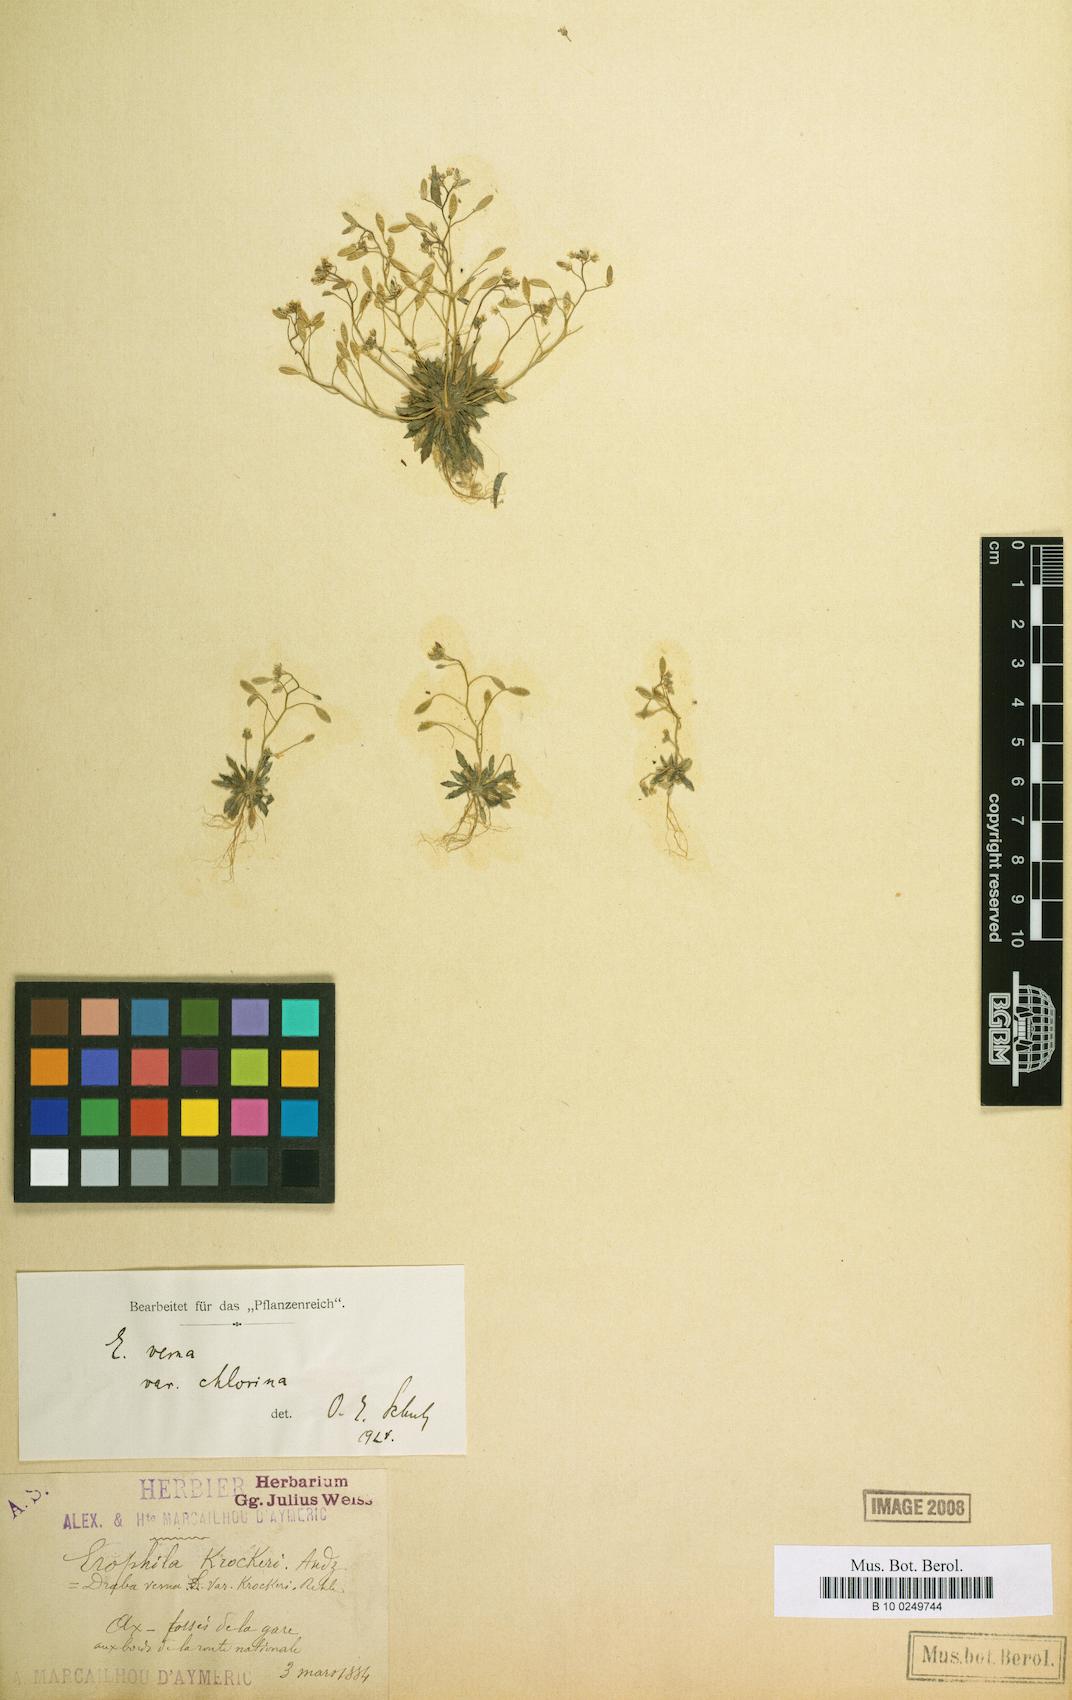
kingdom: Plantae
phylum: Tracheophyta
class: Magnoliopsida
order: Brassicales
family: Brassicaceae
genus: Draba
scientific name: Draba verna
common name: Spring draba
